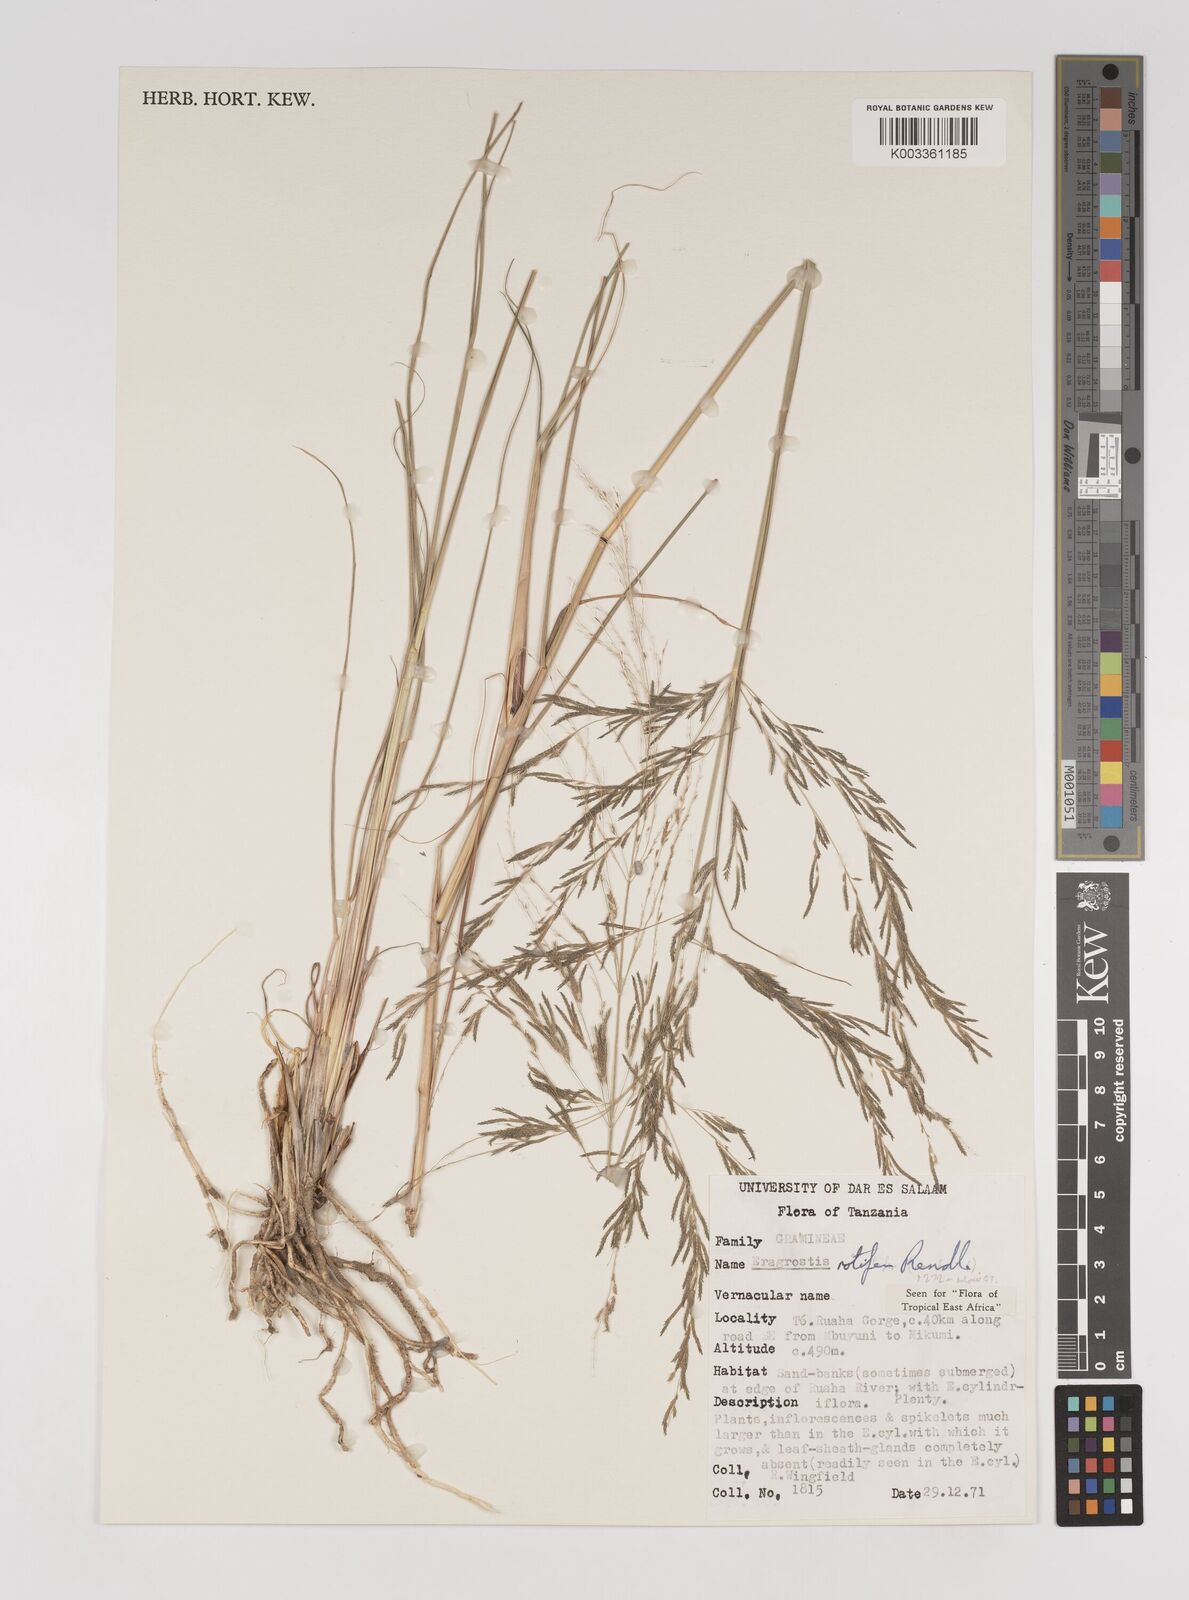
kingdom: Plantae
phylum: Tracheophyta
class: Liliopsida
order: Poales
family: Poaceae
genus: Eragrostis
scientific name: Eragrostis rotifer
